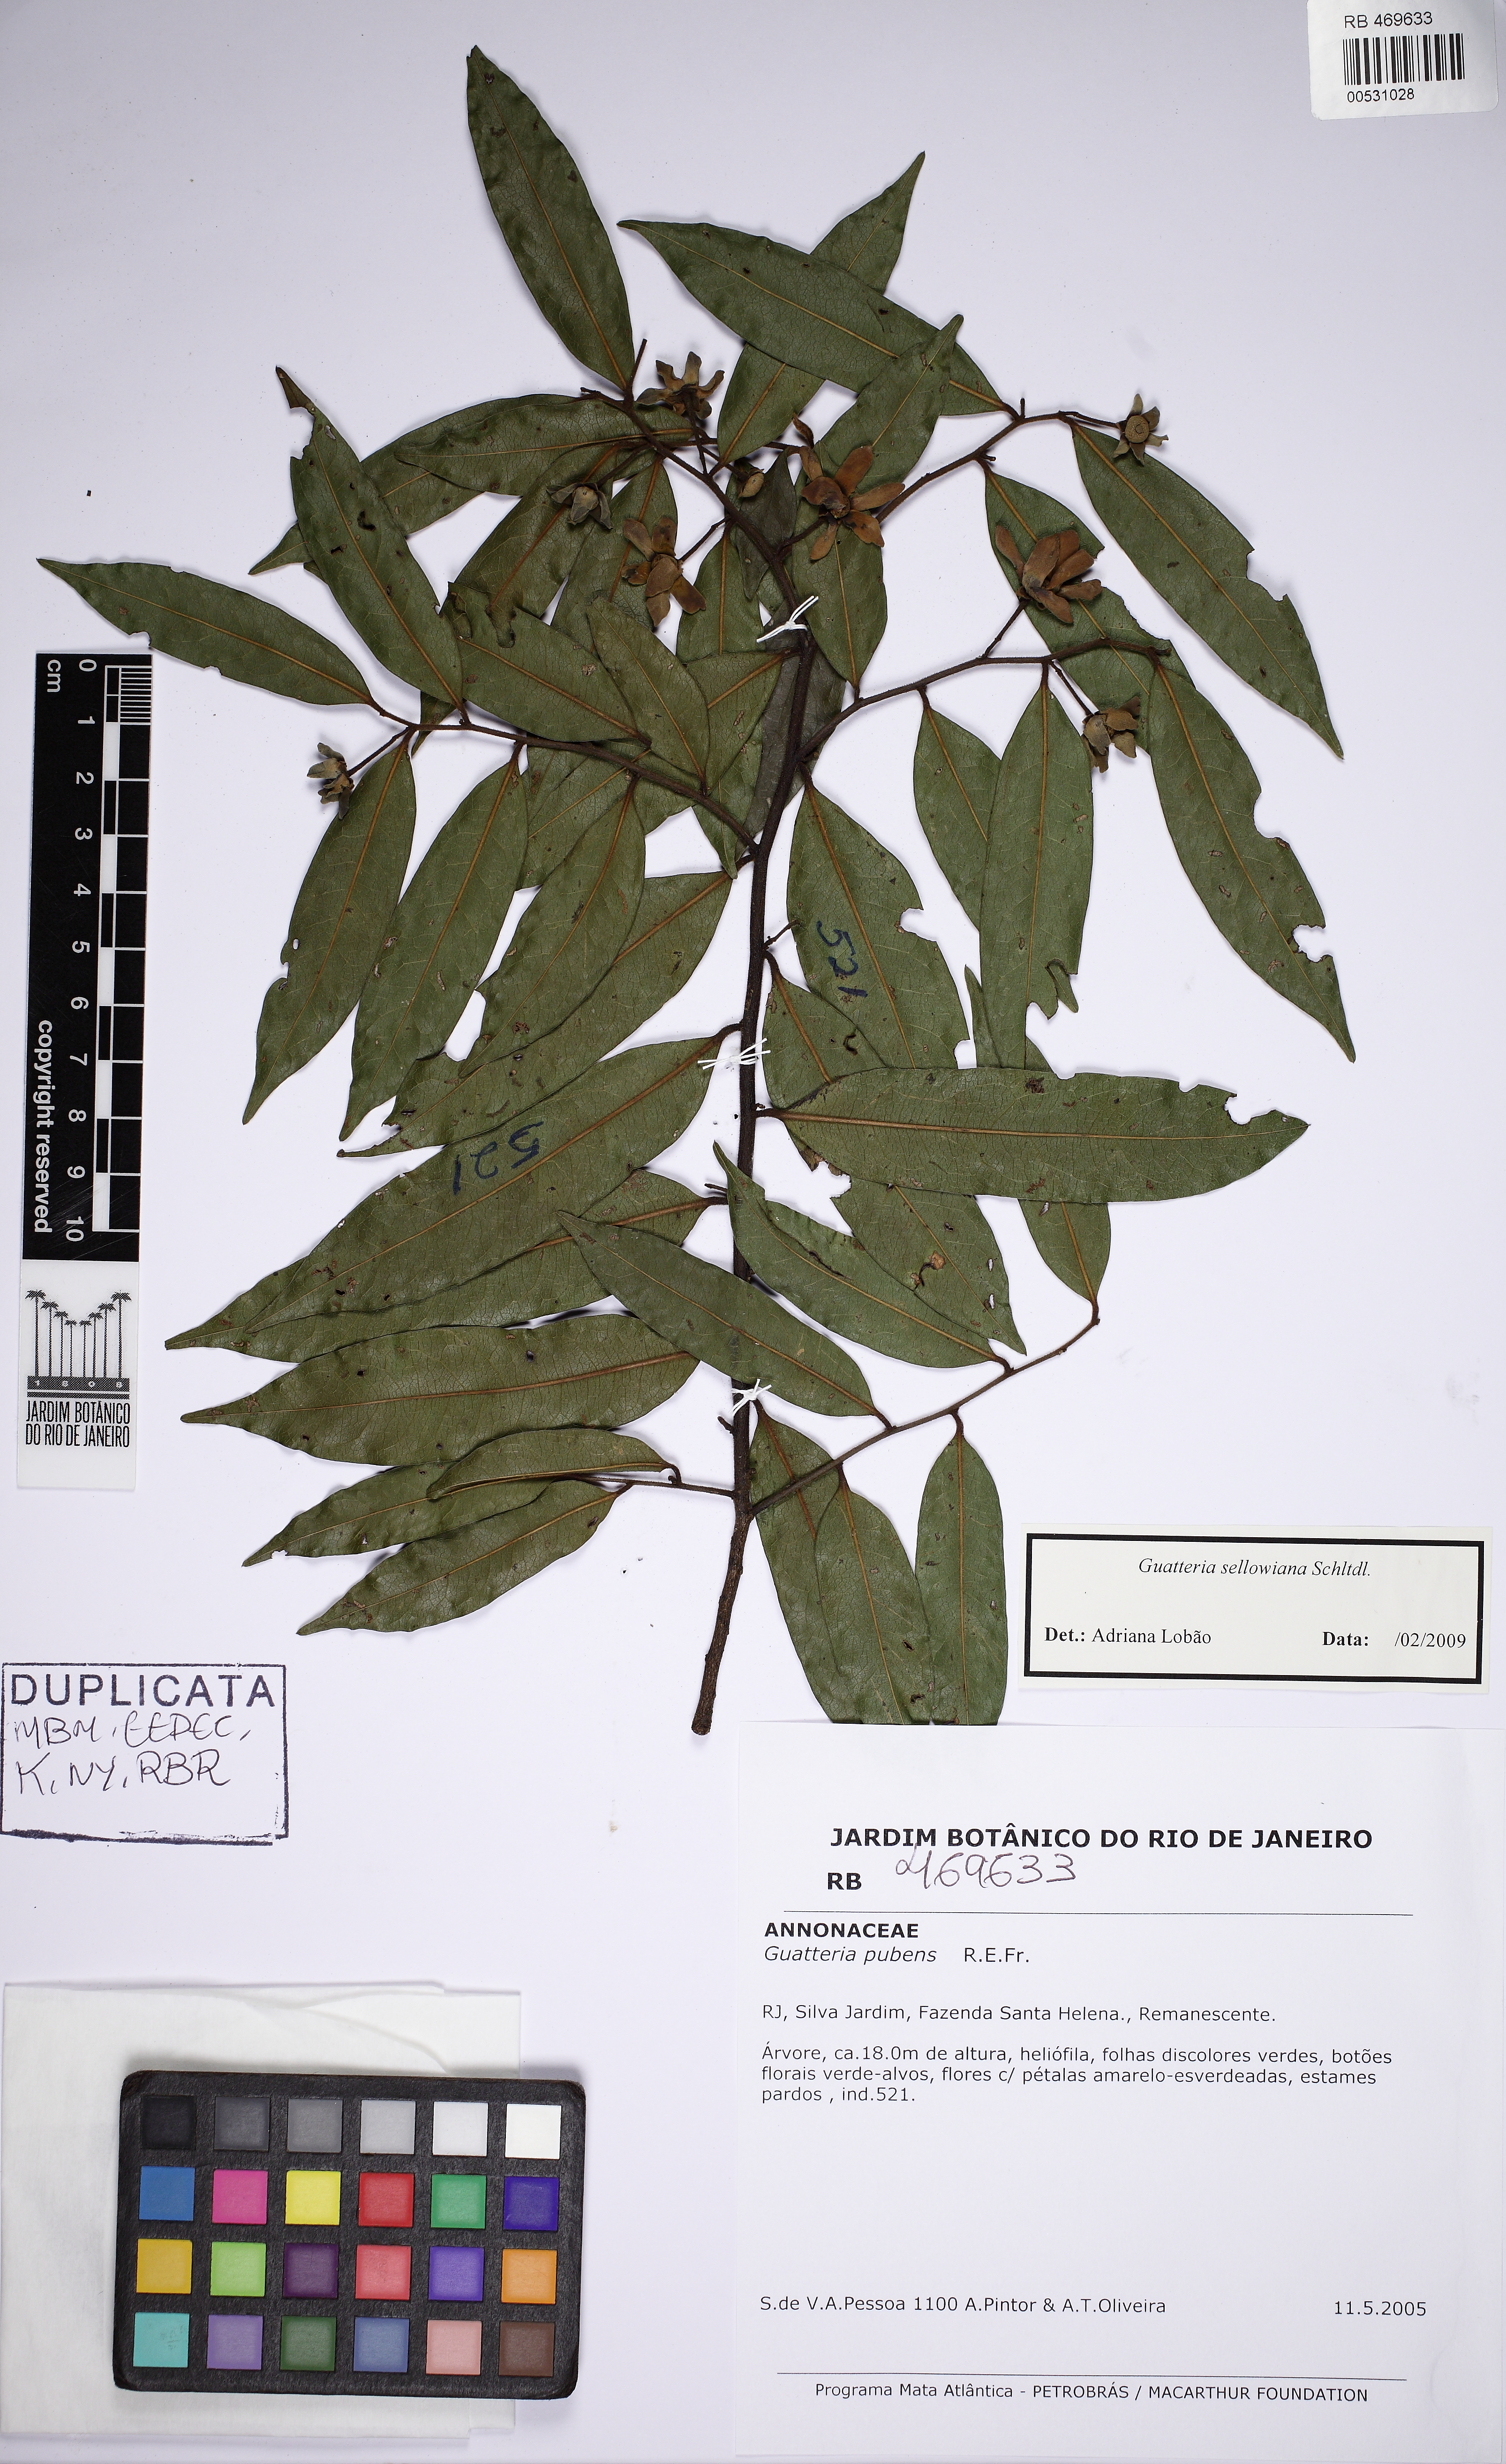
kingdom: Plantae
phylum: Tracheophyta
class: Magnoliopsida
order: Magnoliales
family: Annonaceae
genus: Guatteria
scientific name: Guatteria sellowiana
